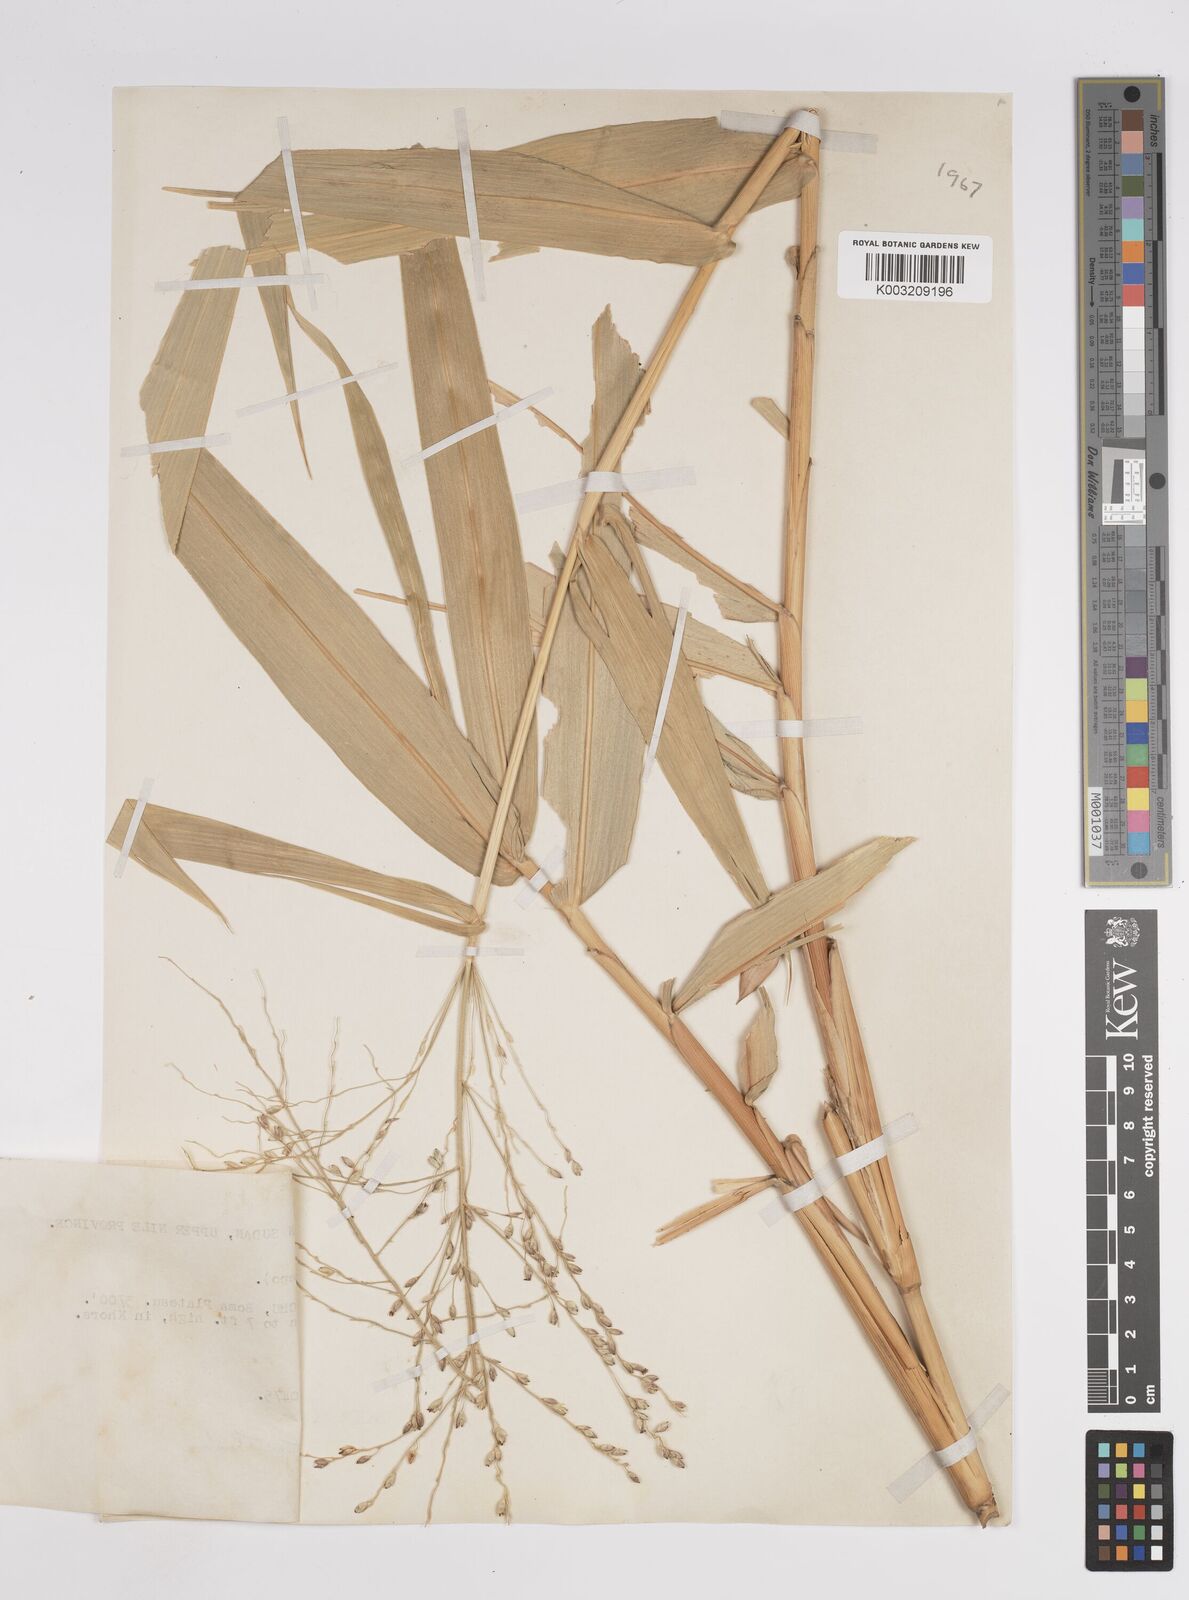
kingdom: Plantae
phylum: Tracheophyta
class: Liliopsida
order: Poales
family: Poaceae
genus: Panicum
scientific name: Panicum
